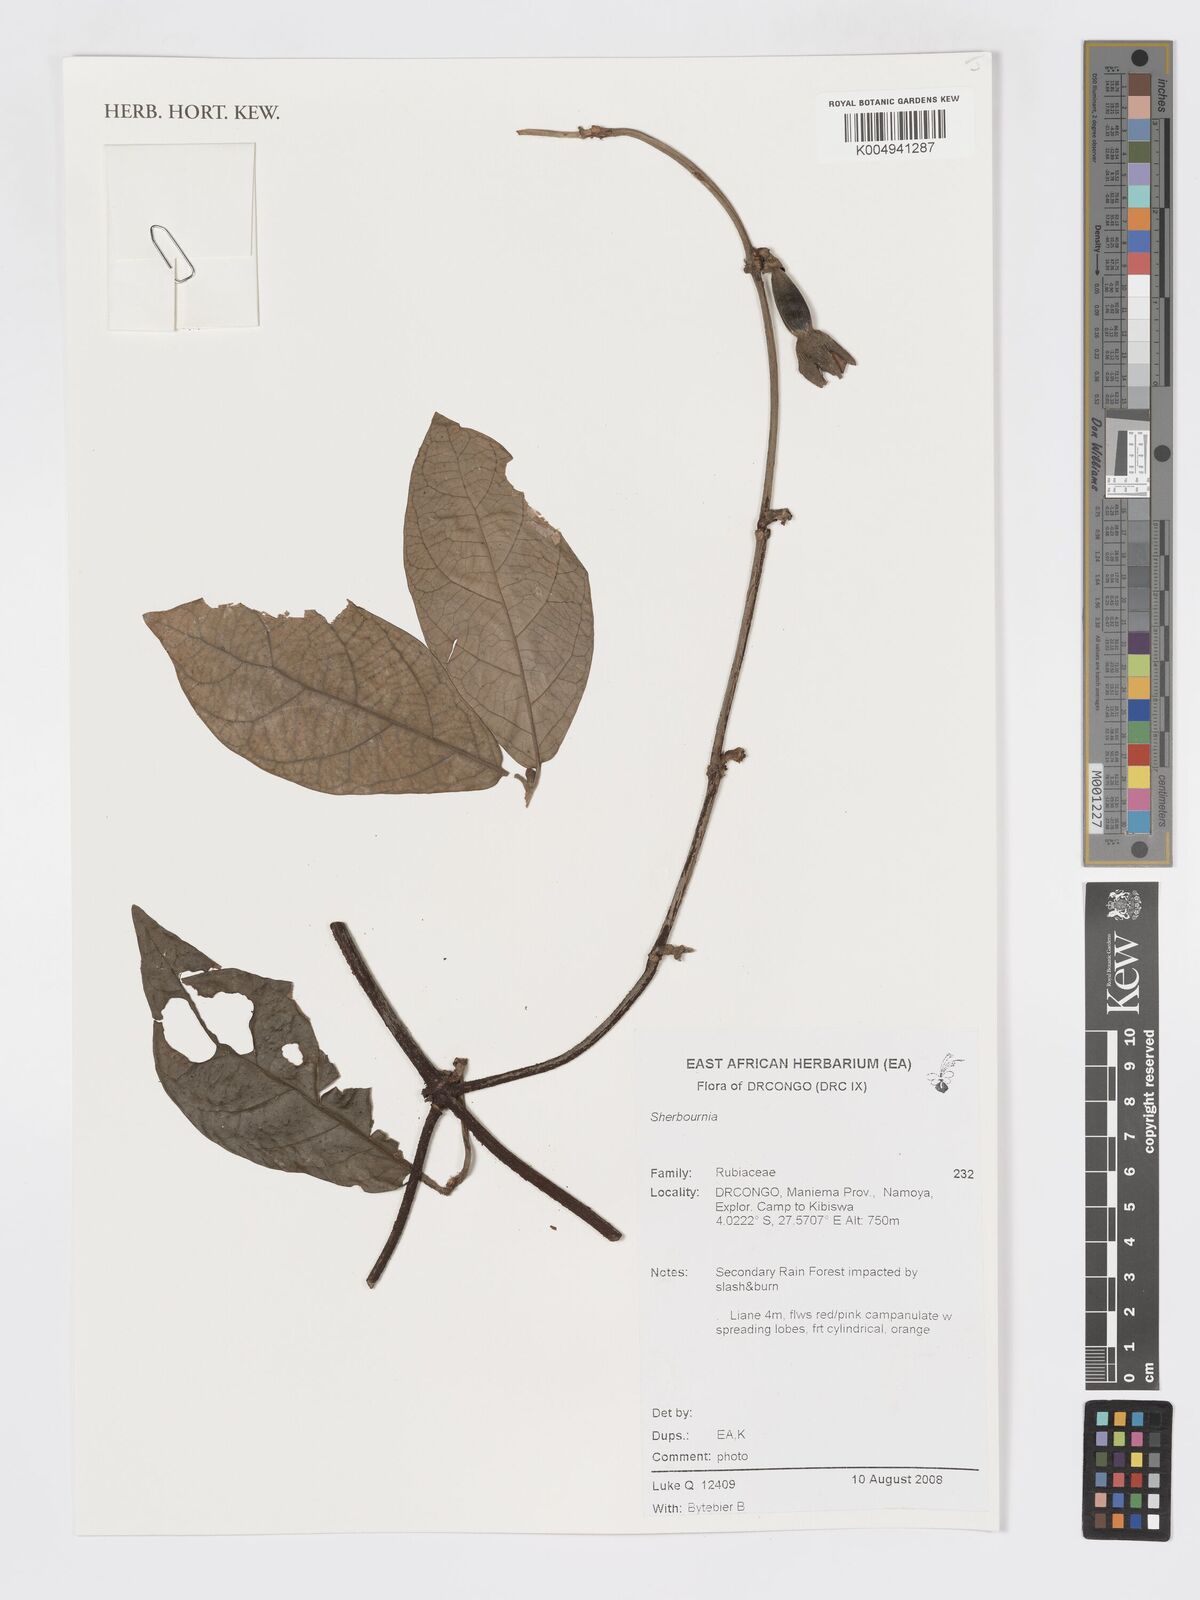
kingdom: Plantae
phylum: Tracheophyta
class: Magnoliopsida
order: Gentianales
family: Rubiaceae
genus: Sherbournia
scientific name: Sherbournia
